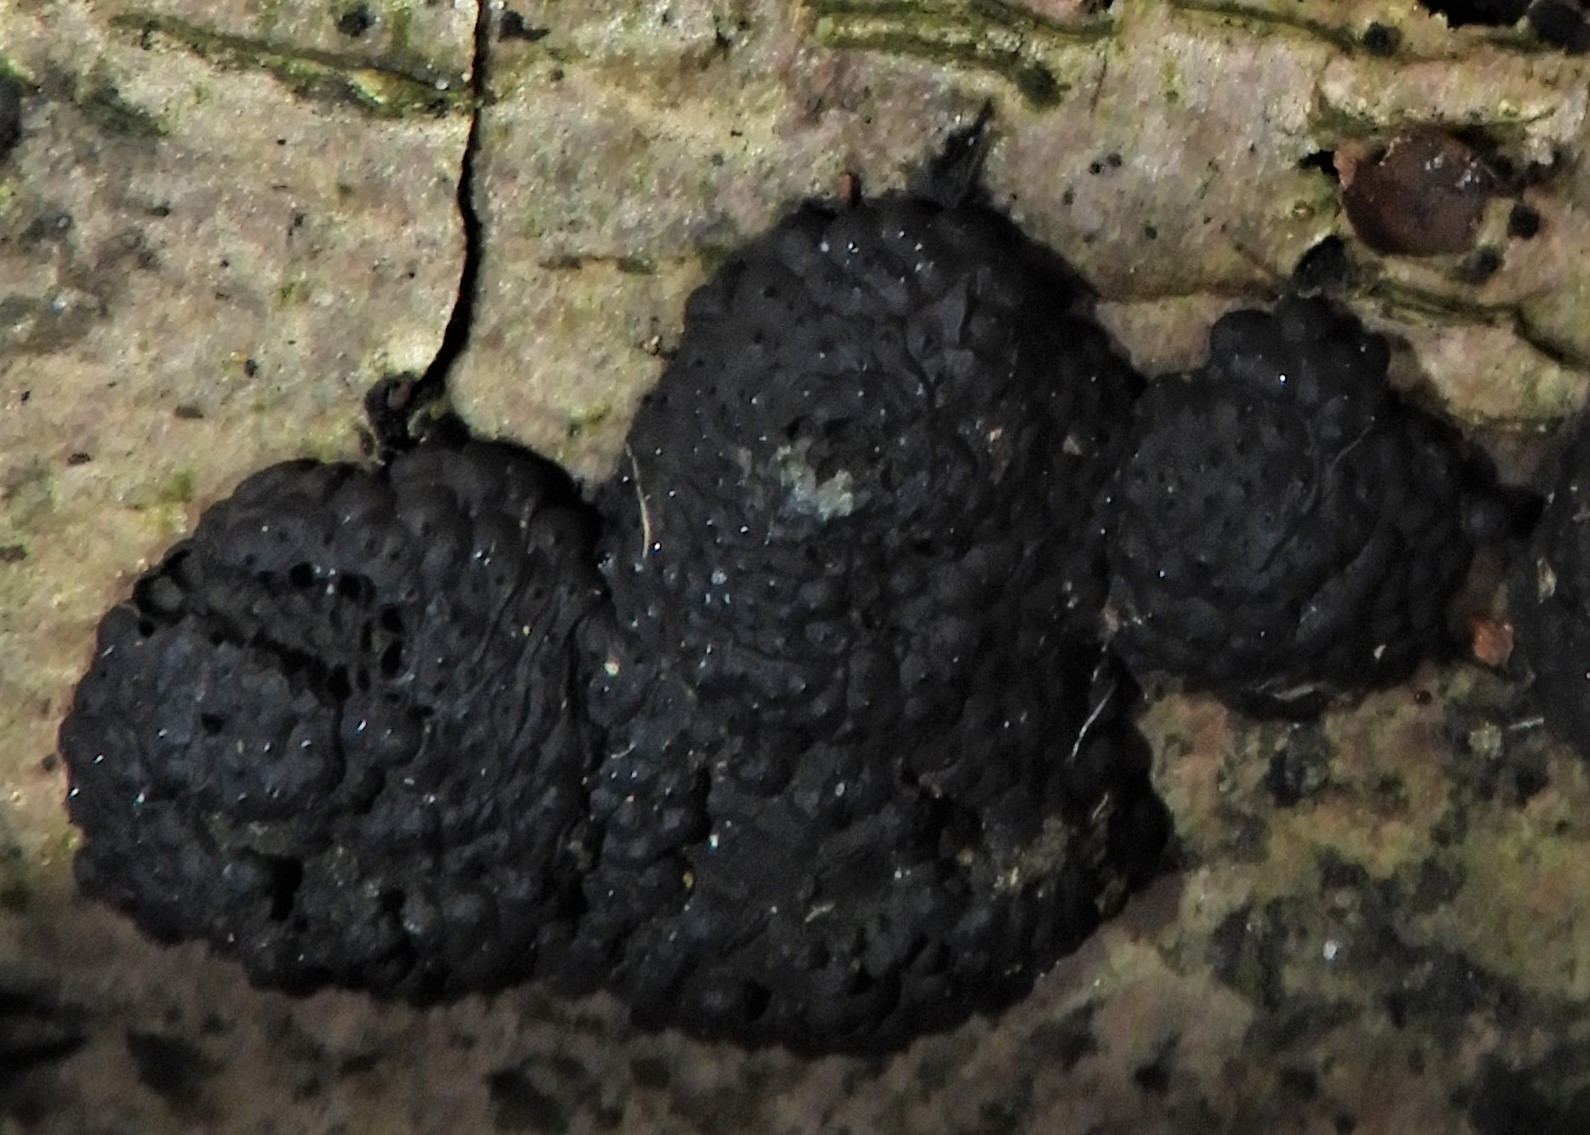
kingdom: Fungi
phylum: Ascomycota
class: Sordariomycetes
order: Xylariales
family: Hypoxylaceae
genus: Jackrogersella
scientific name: Jackrogersella multiformis
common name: foranderlig kulbær
